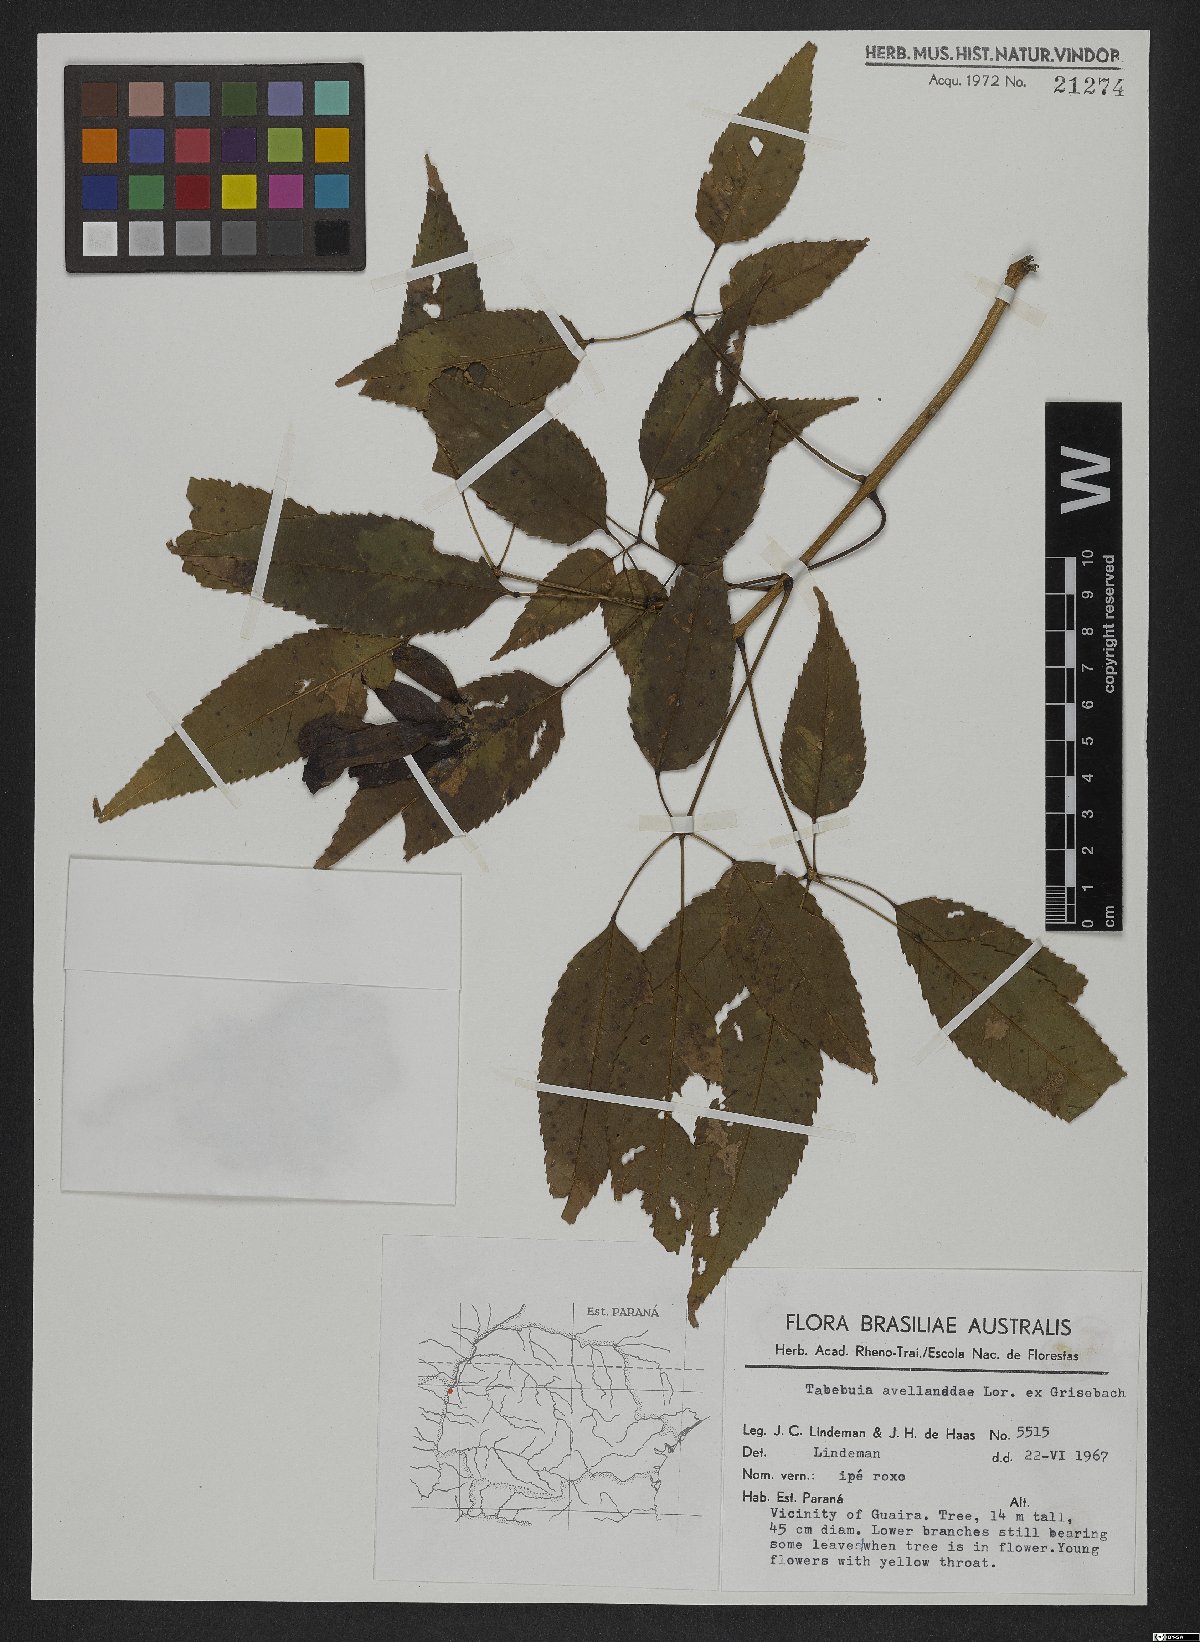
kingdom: Plantae
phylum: Tracheophyta
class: Magnoliopsida
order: Lamiales
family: Bignoniaceae
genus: Handroanthus
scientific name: Handroanthus impetiginosum
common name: Pink trumpet tree
